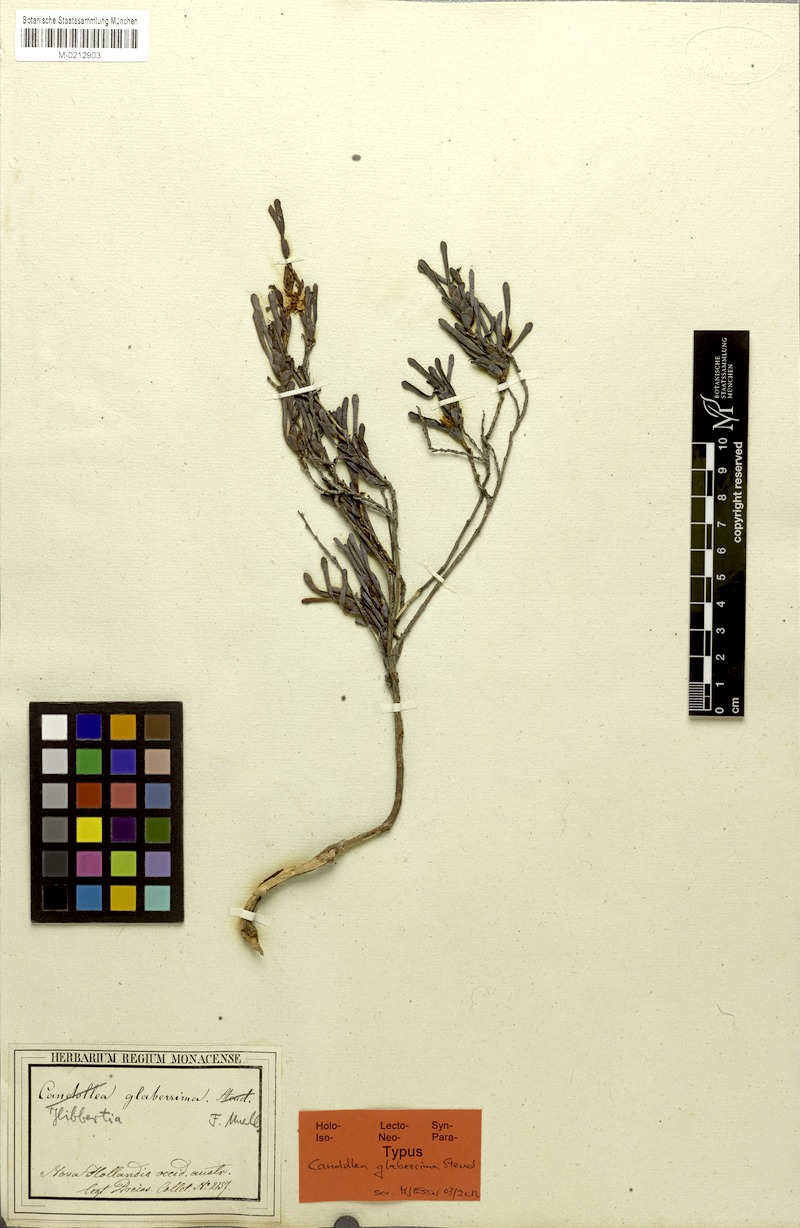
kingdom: Plantae
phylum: Tracheophyta
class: Magnoliopsida
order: Dilleniales
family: Dilleniaceae
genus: Hibbertia
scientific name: Hibbertia glaberrima
